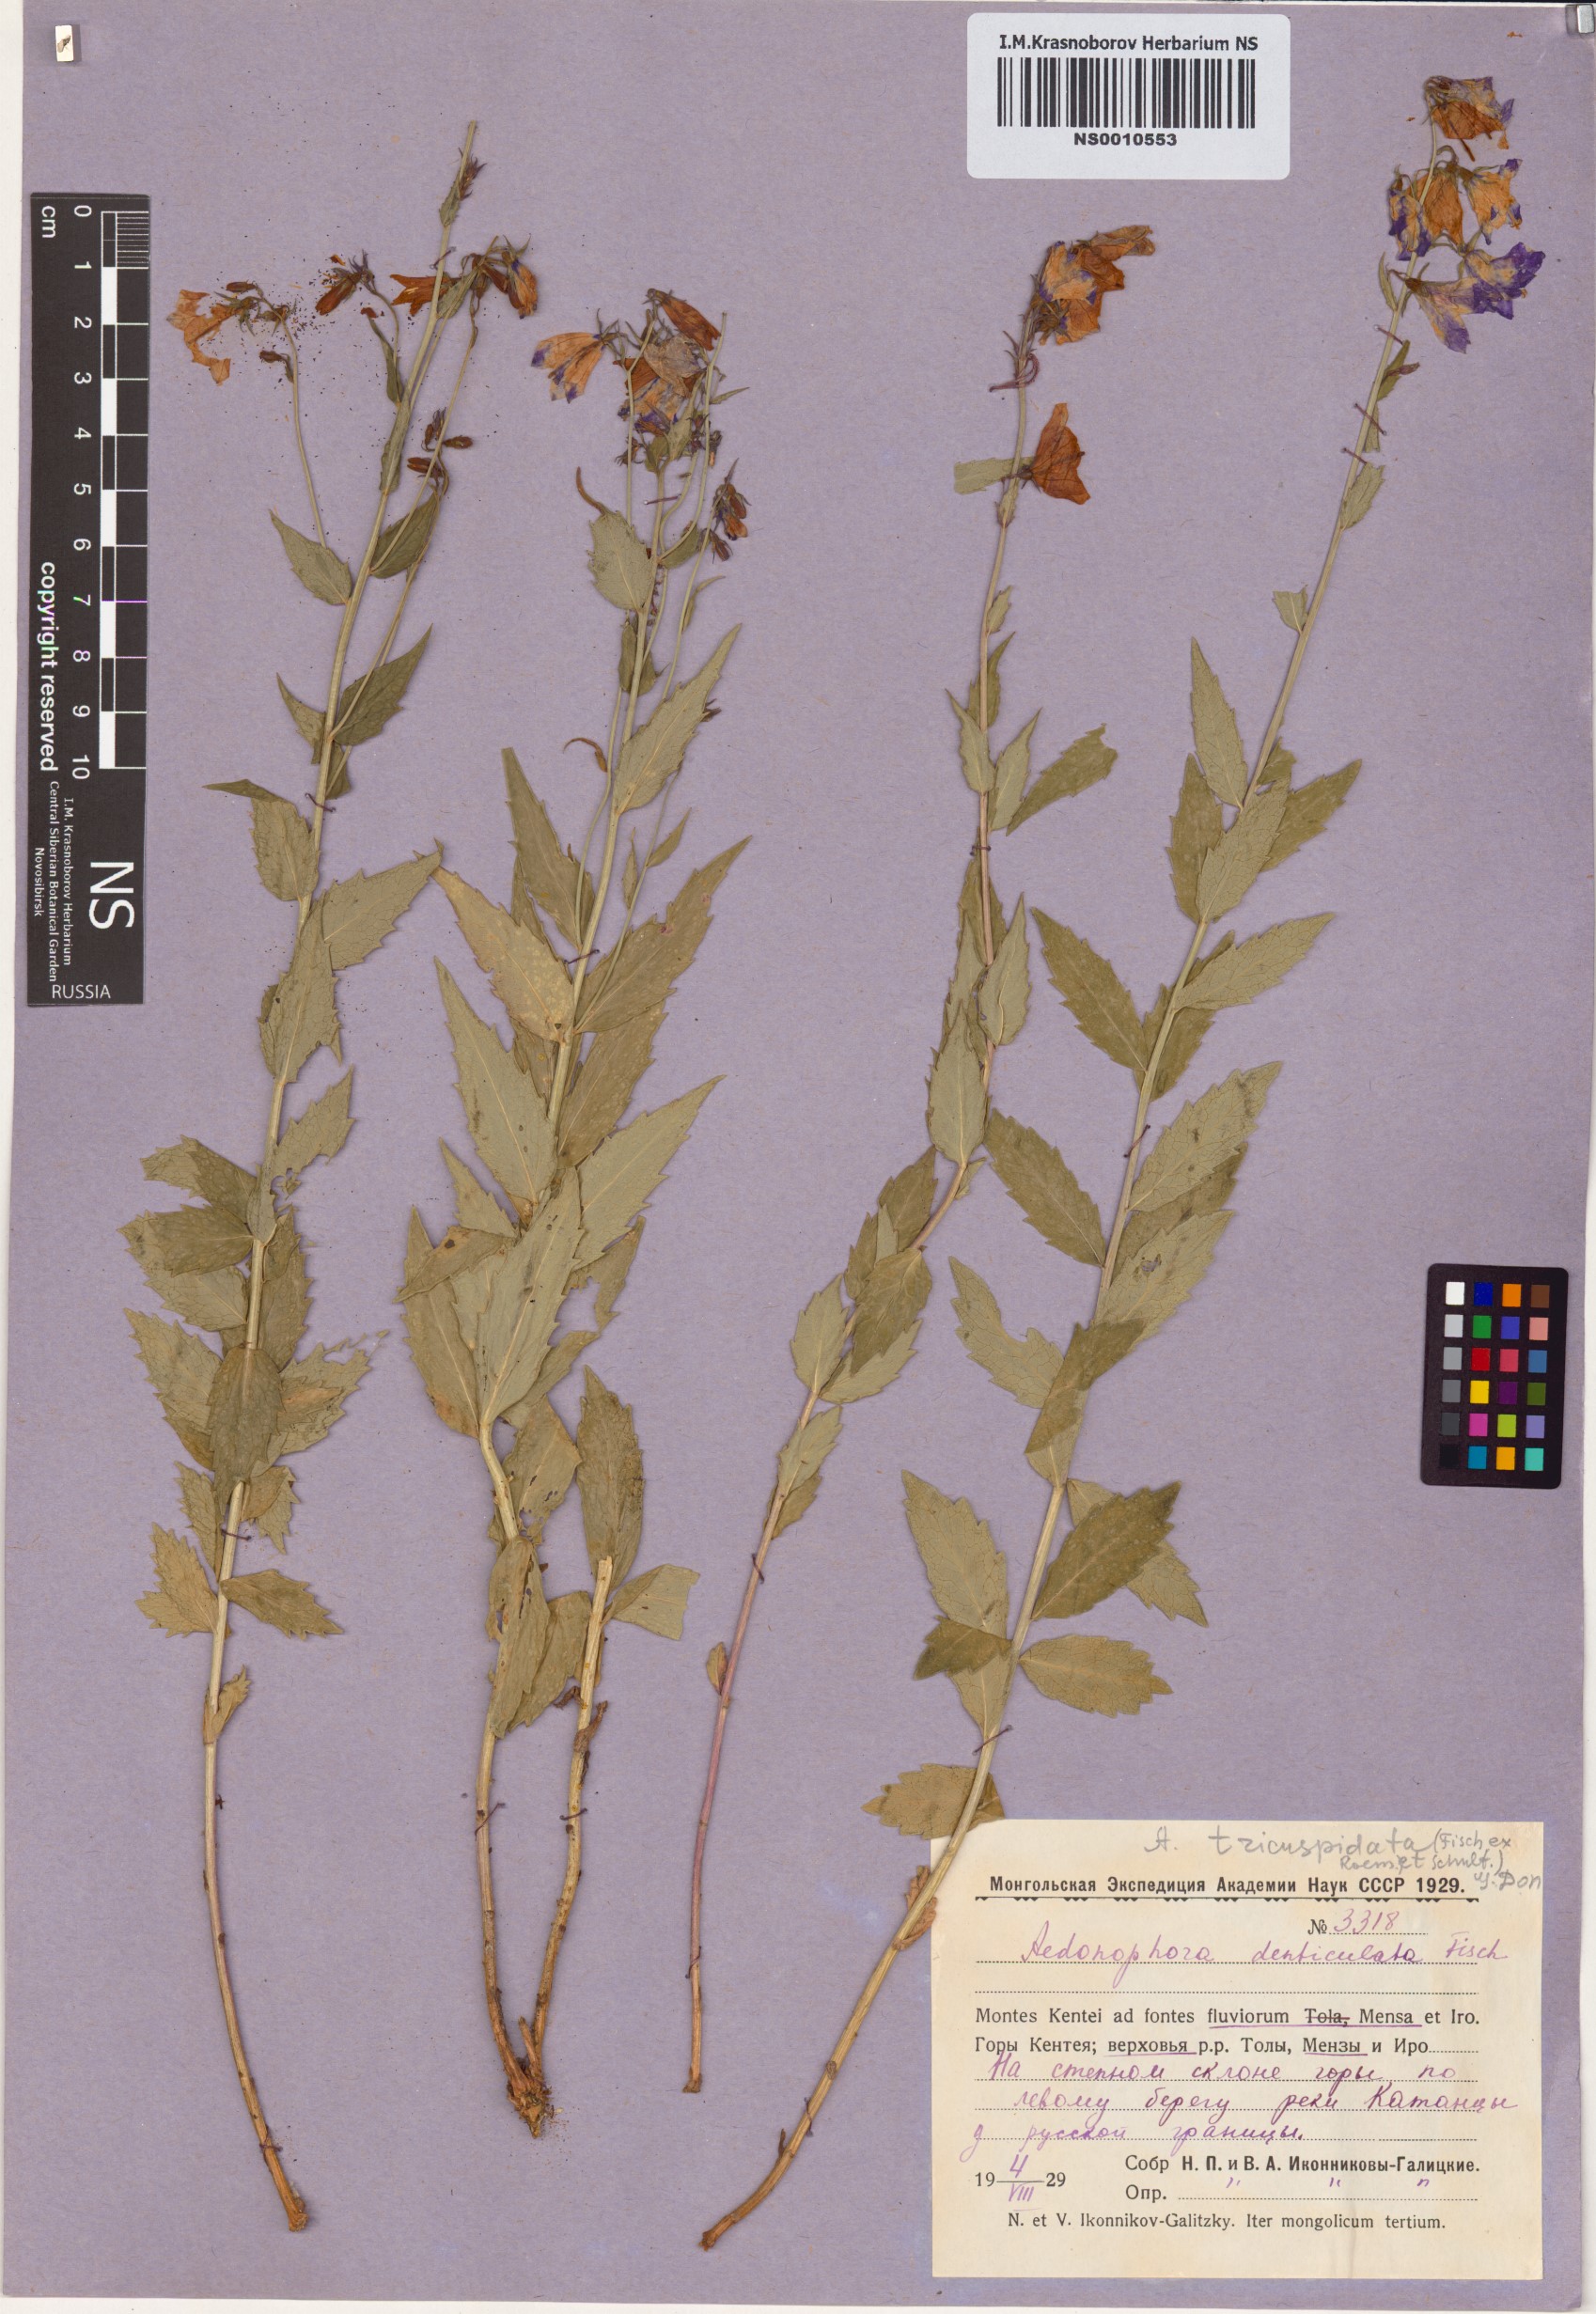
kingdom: Plantae
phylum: Tracheophyta
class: Magnoliopsida
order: Asterales
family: Campanulaceae
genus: Adenophora
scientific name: Adenophora tricuspidata
